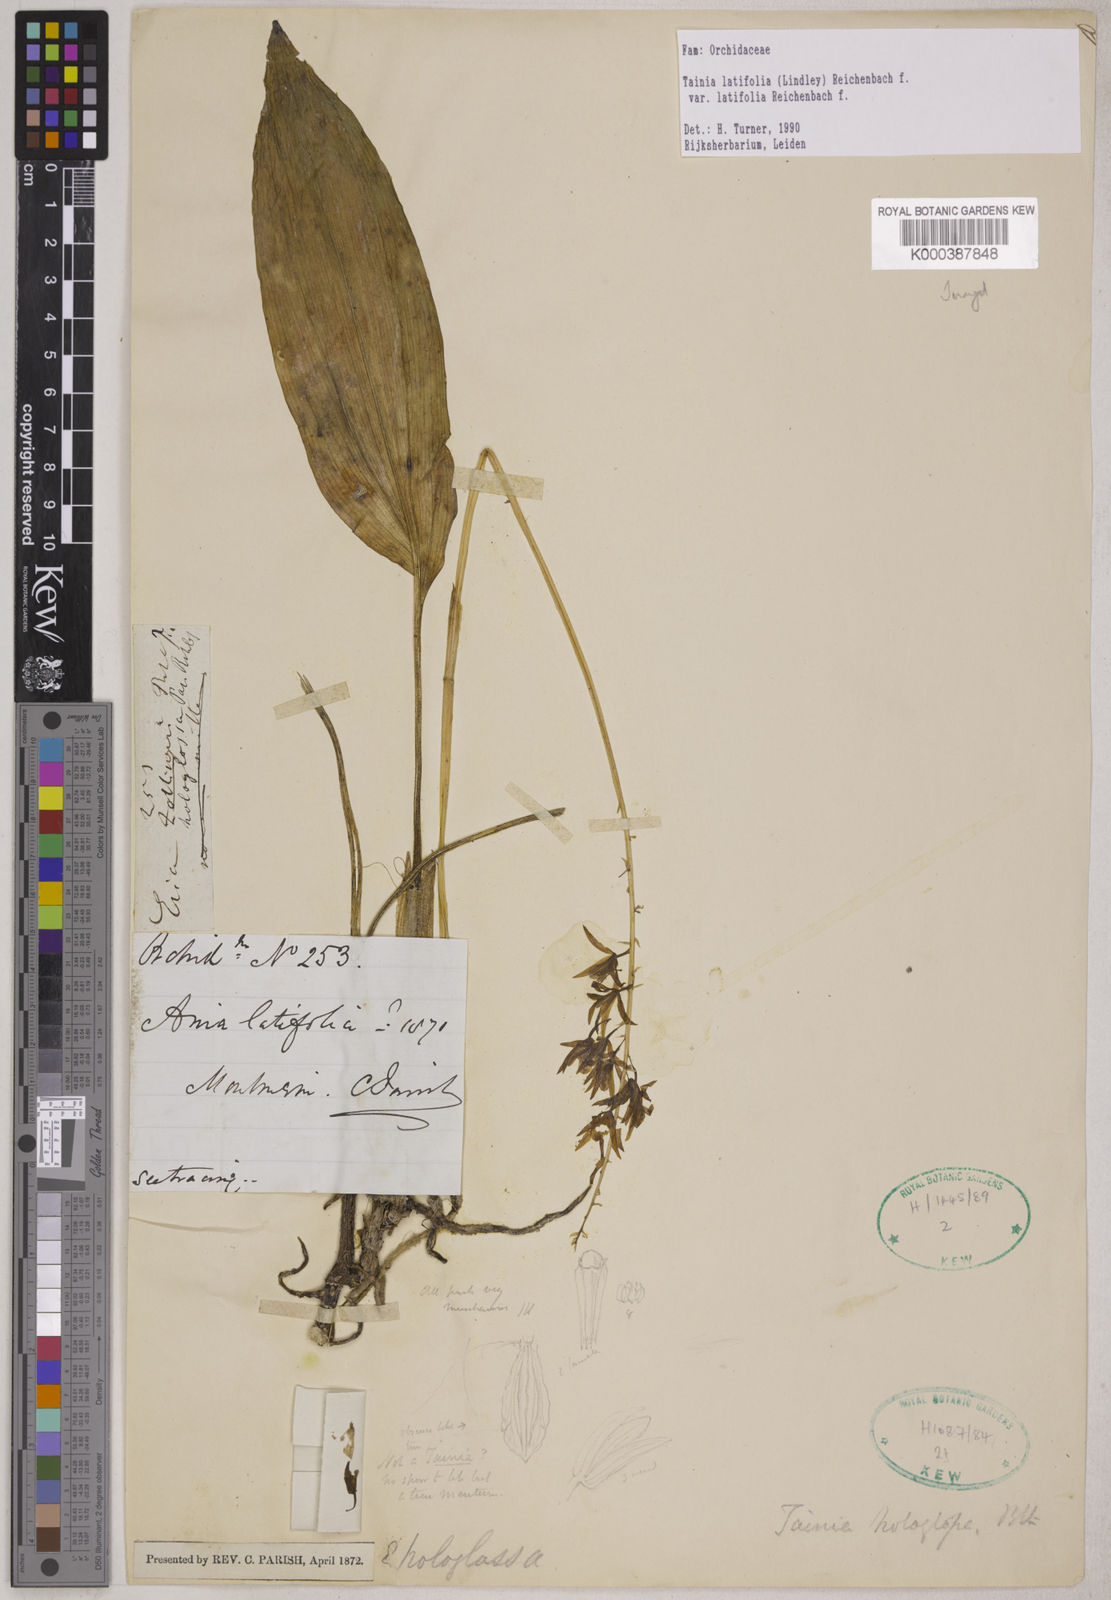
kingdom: Plantae
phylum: Tracheophyta
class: Liliopsida
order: Asparagales
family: Orchidaceae
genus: Tainia
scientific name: Tainia latifolia
